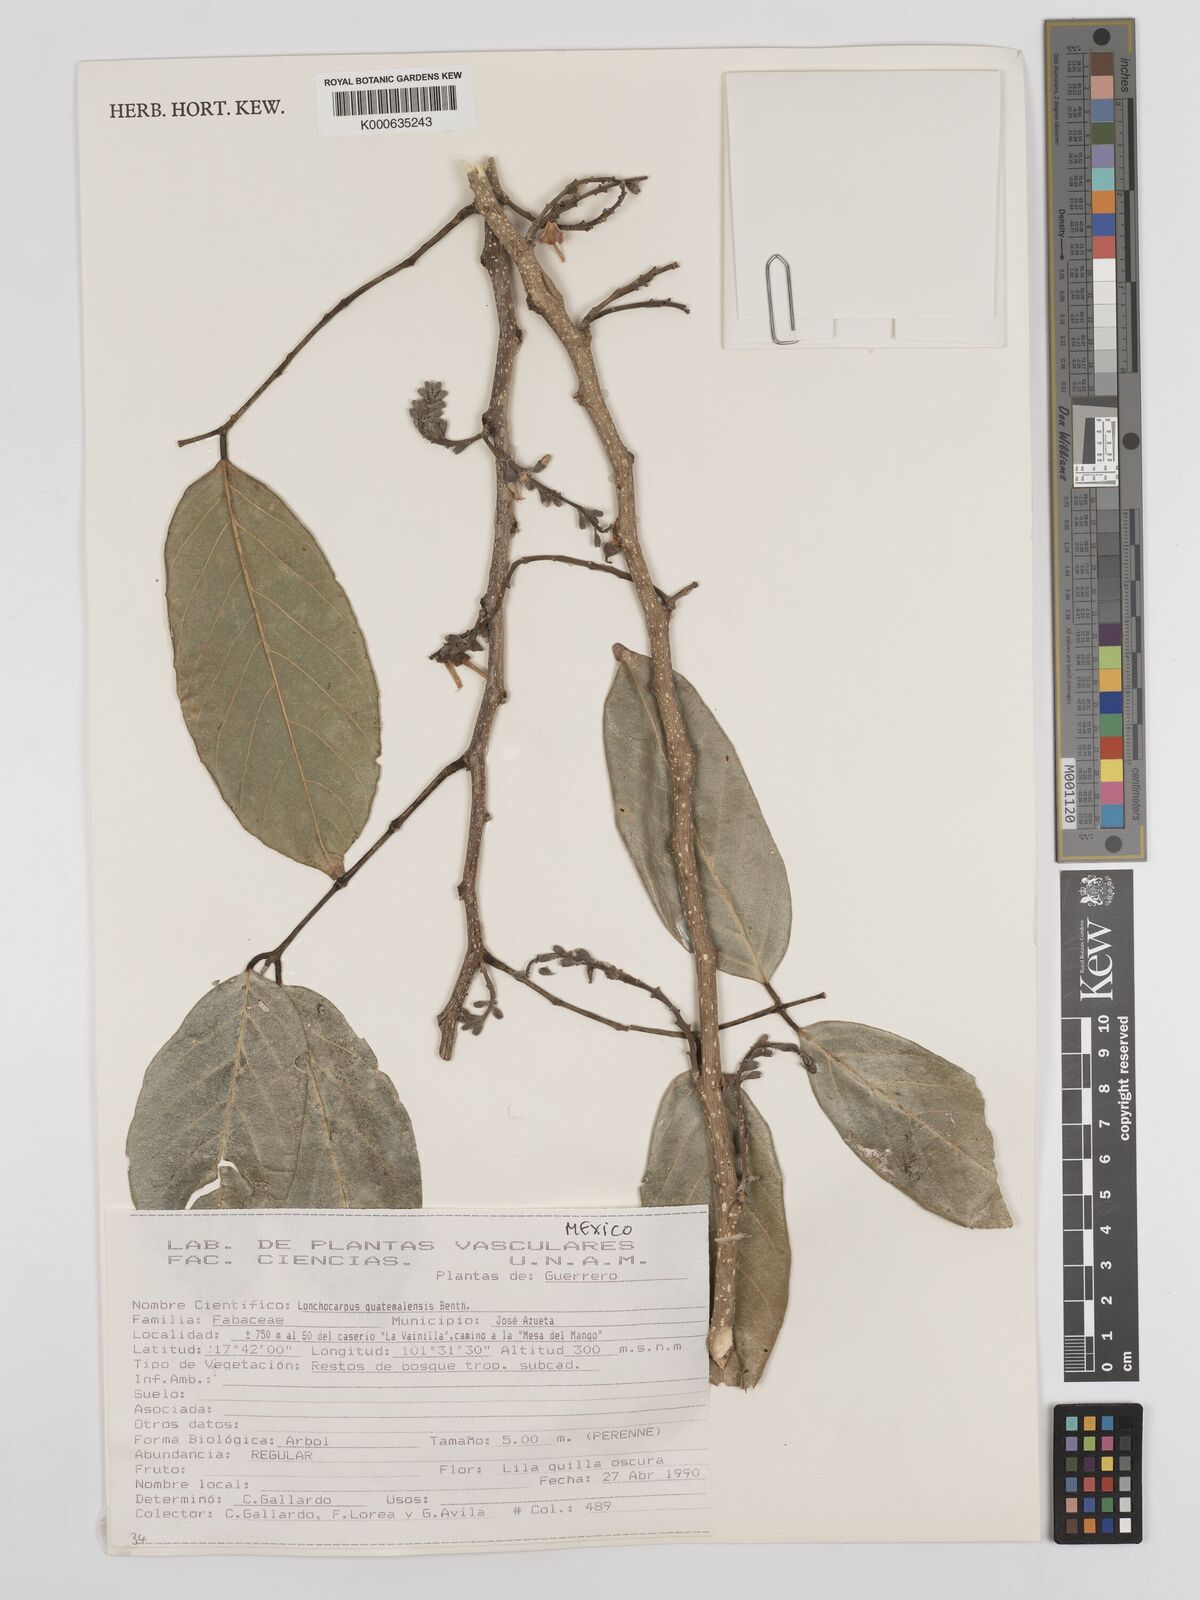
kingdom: Plantae
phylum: Tracheophyta
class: Magnoliopsida
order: Fabales
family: Fabaceae
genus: Lonchocarpus
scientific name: Lonchocarpus guatemalensis
